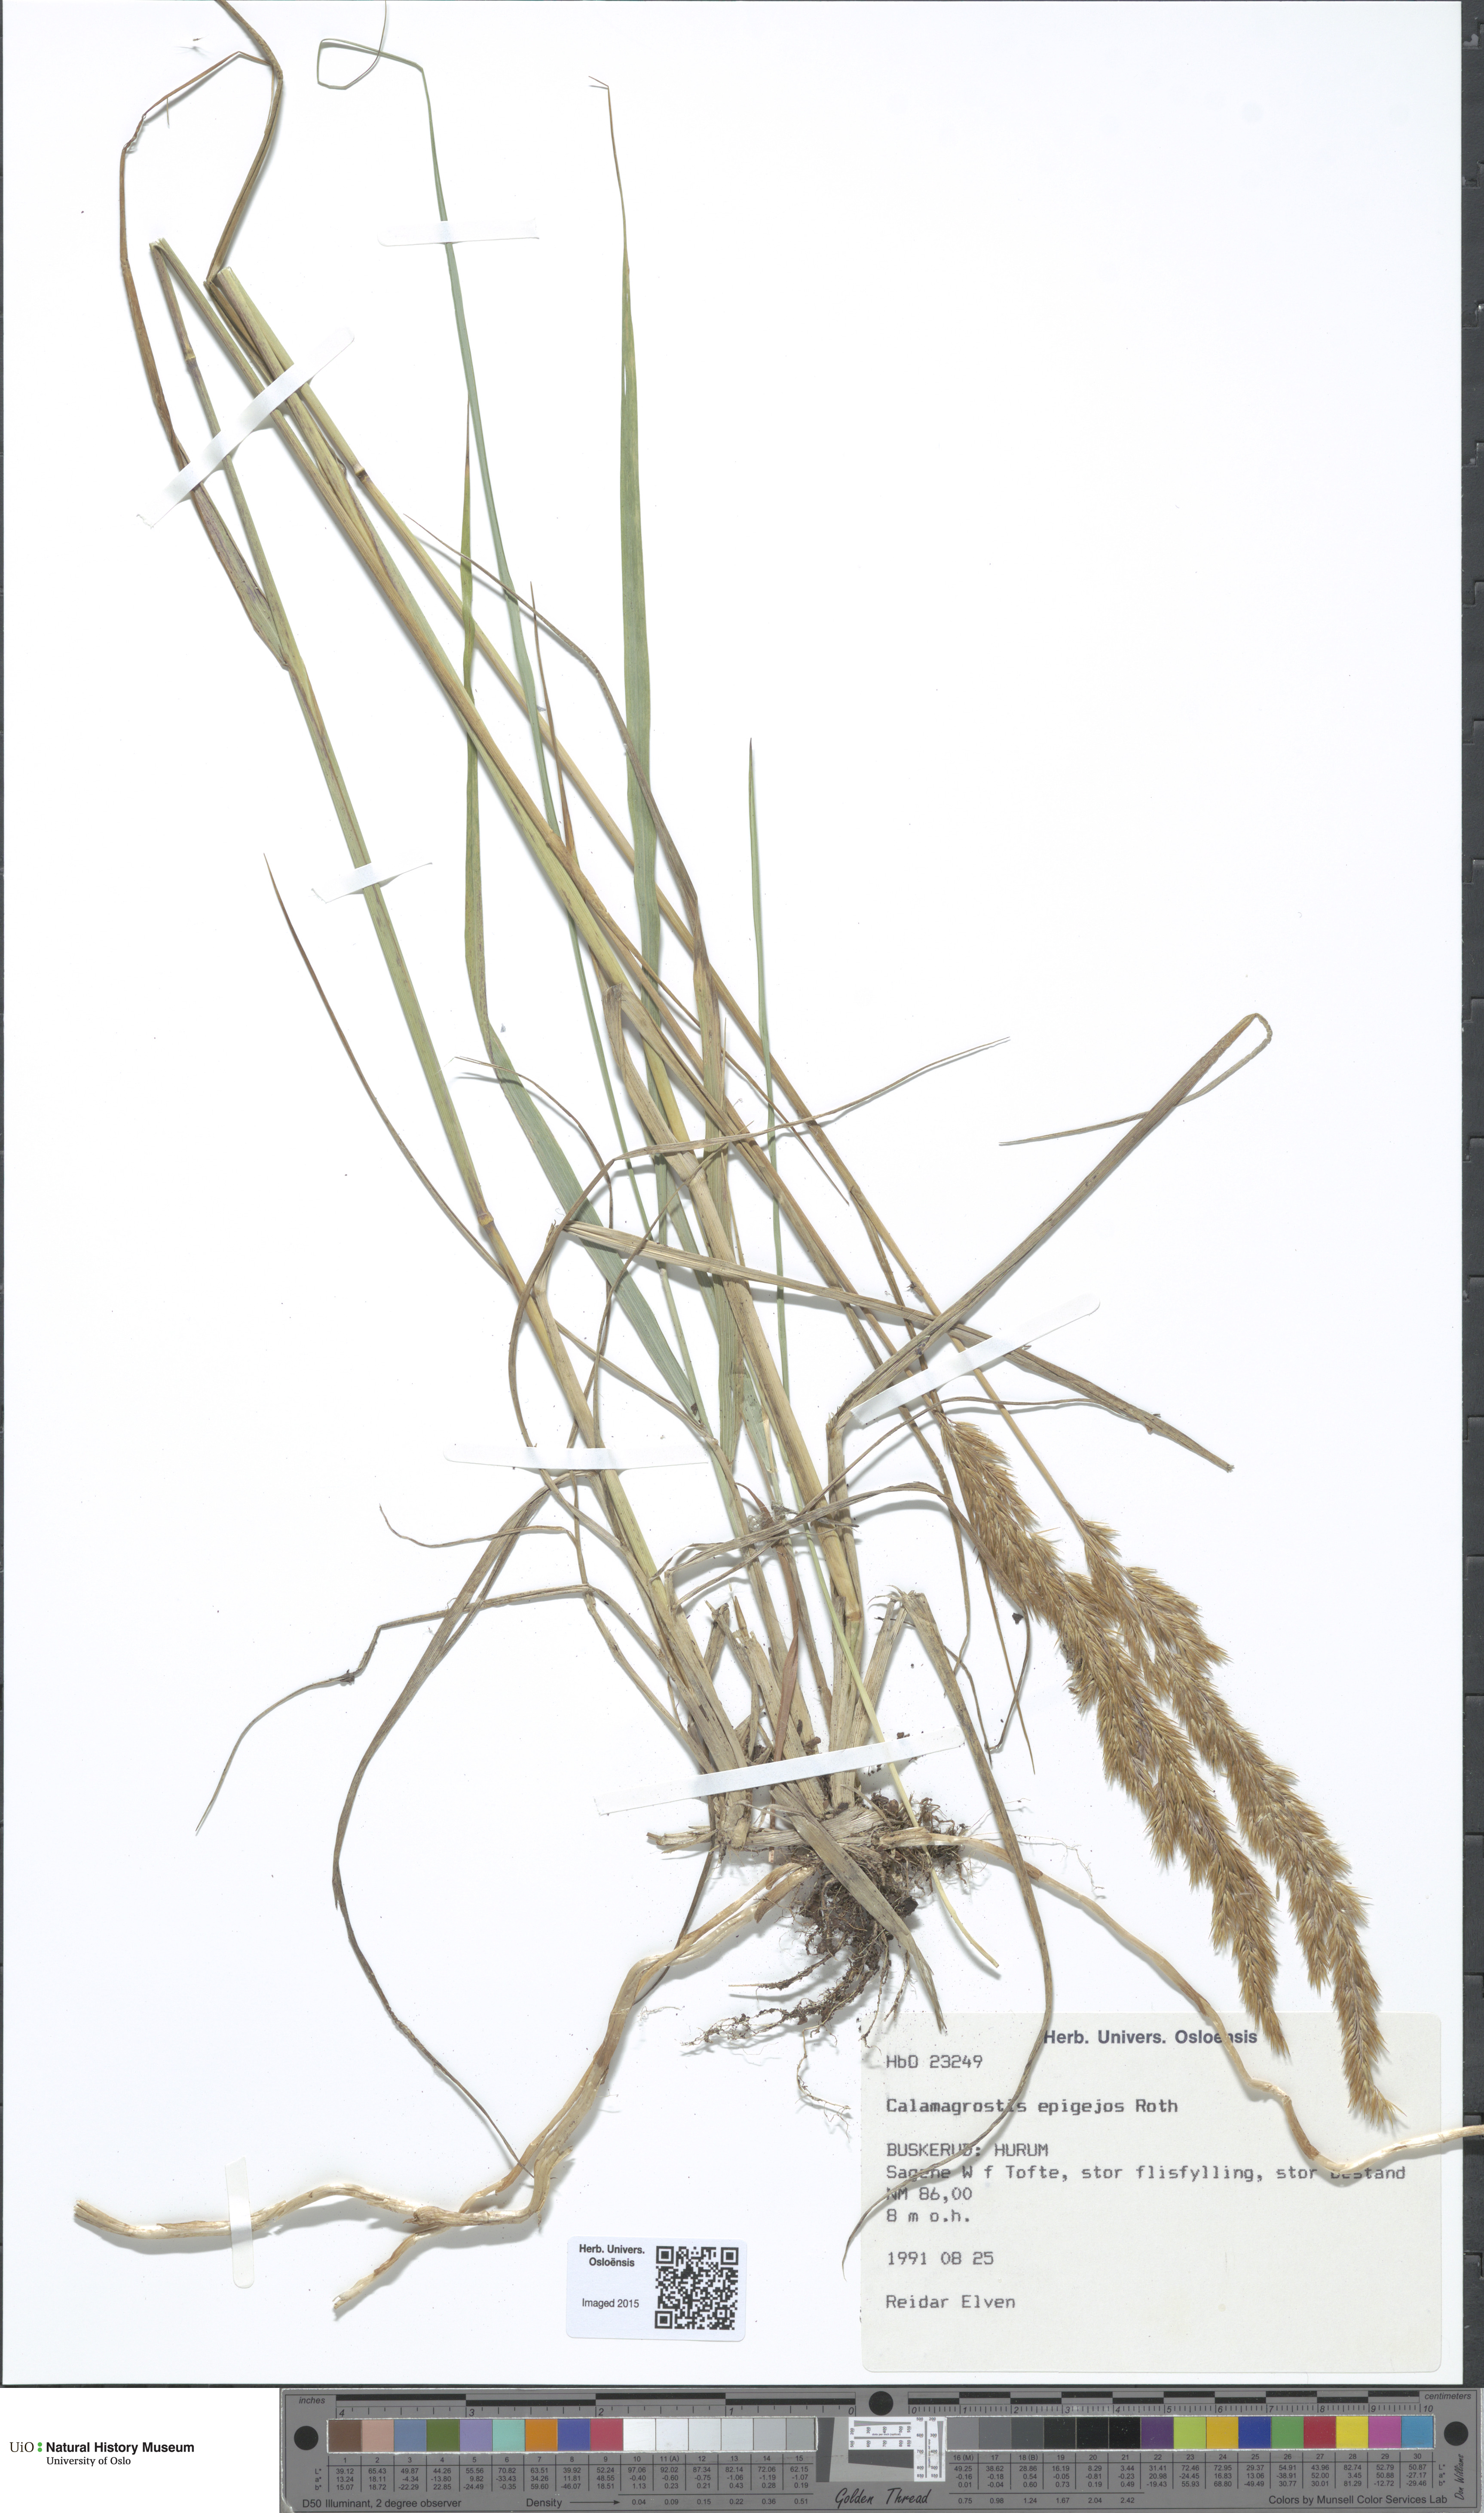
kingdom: Plantae
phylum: Tracheophyta
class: Liliopsida
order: Poales
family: Poaceae
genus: Calamagrostis
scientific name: Calamagrostis epigejos
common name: Wood small-reed
